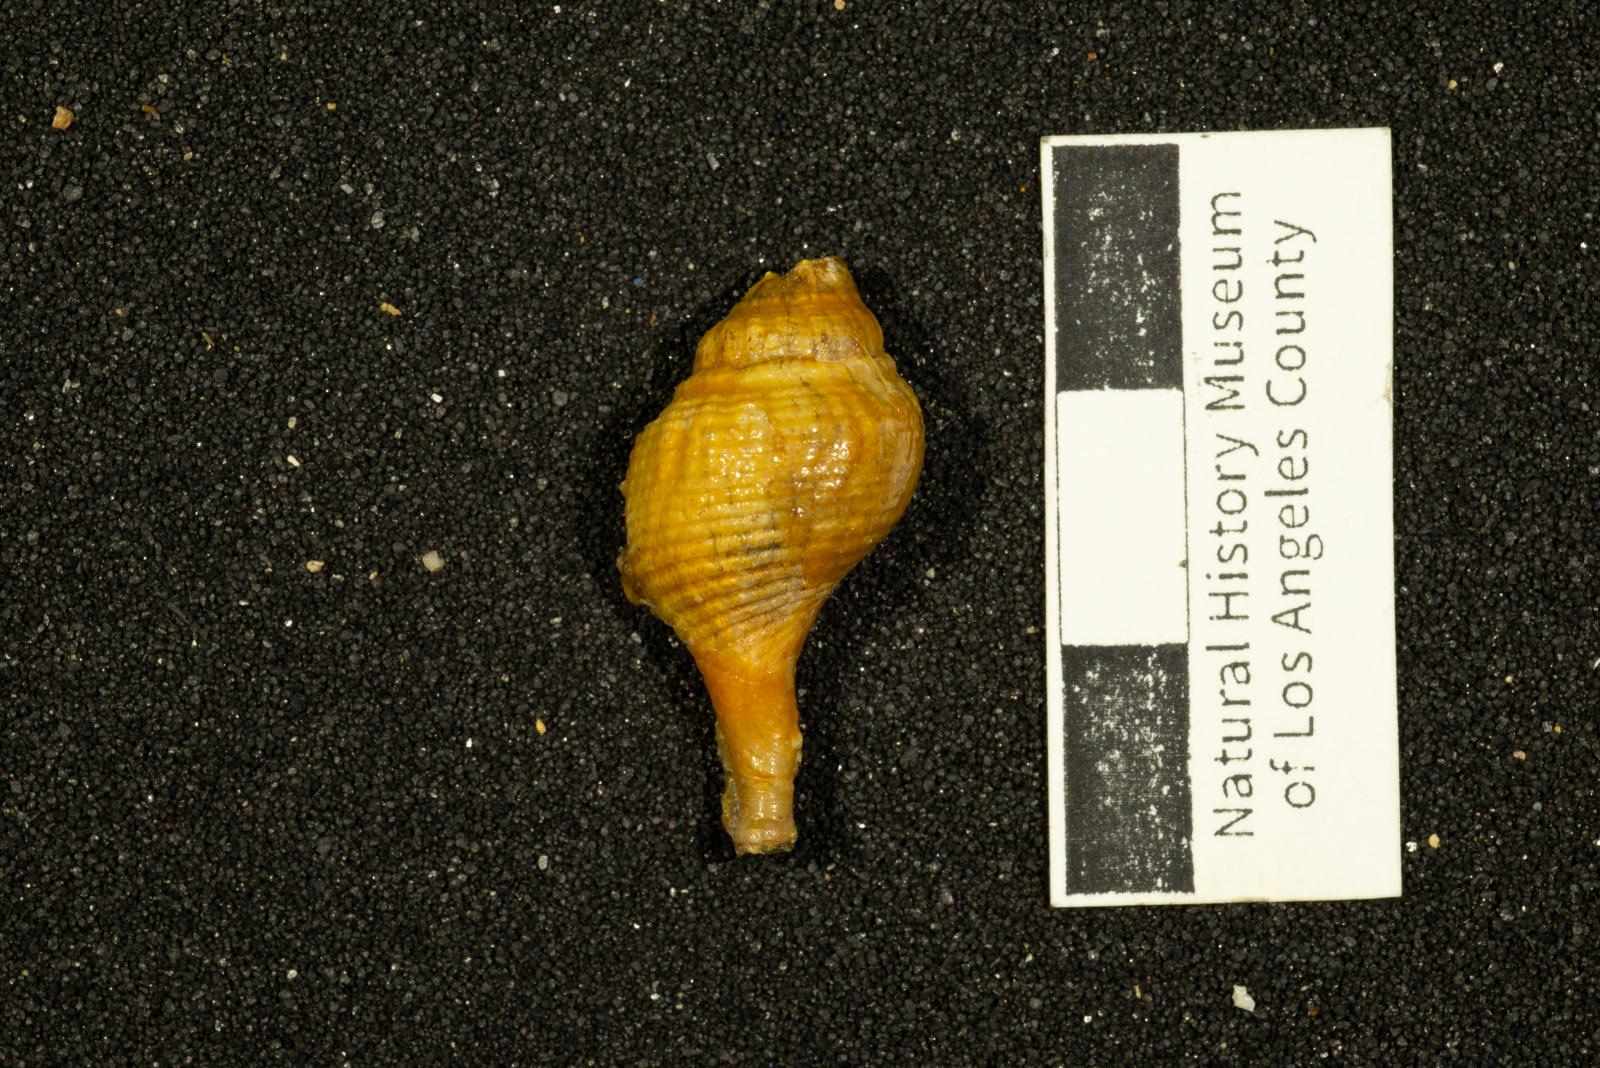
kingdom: Animalia
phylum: Mollusca
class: Gastropoda
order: Neogastropoda
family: Fasciolariidae
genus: Micasarcina
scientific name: Micasarcina vallis
